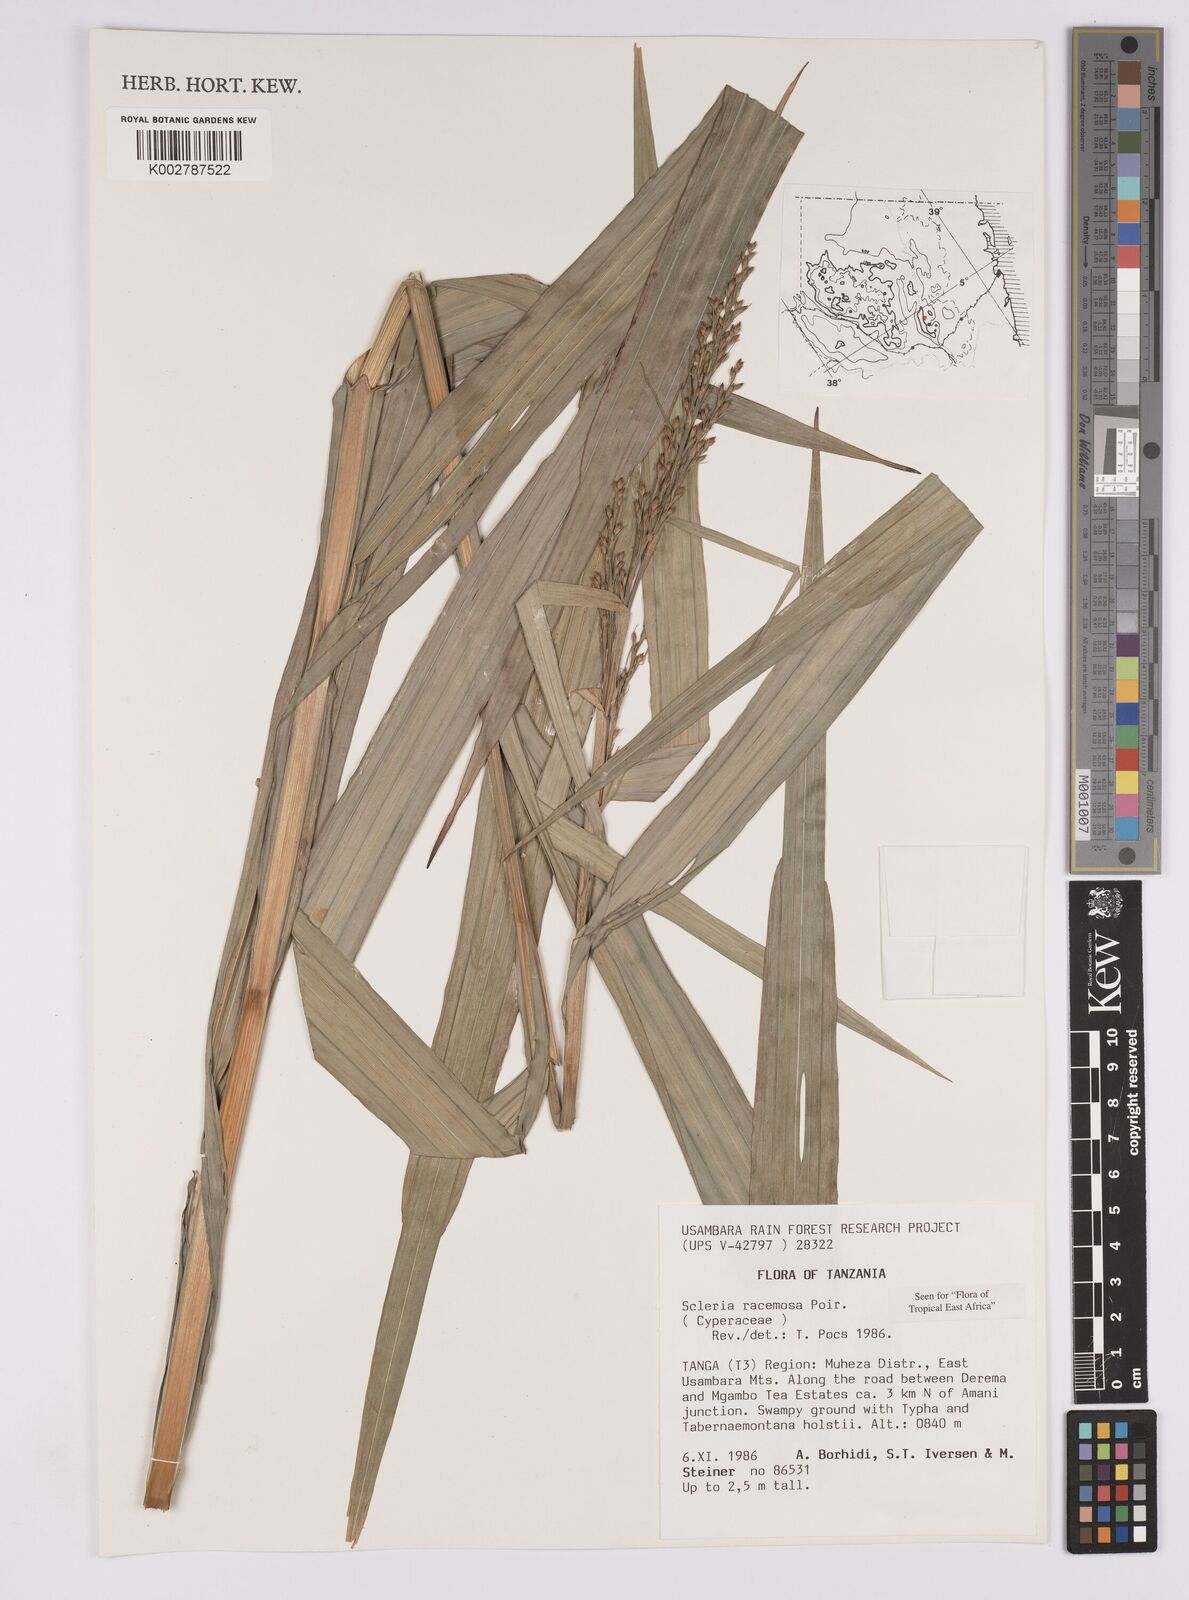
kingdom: Plantae
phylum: Tracheophyta
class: Liliopsida
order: Poales
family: Cyperaceae
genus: Scleria
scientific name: Scleria racemosa
